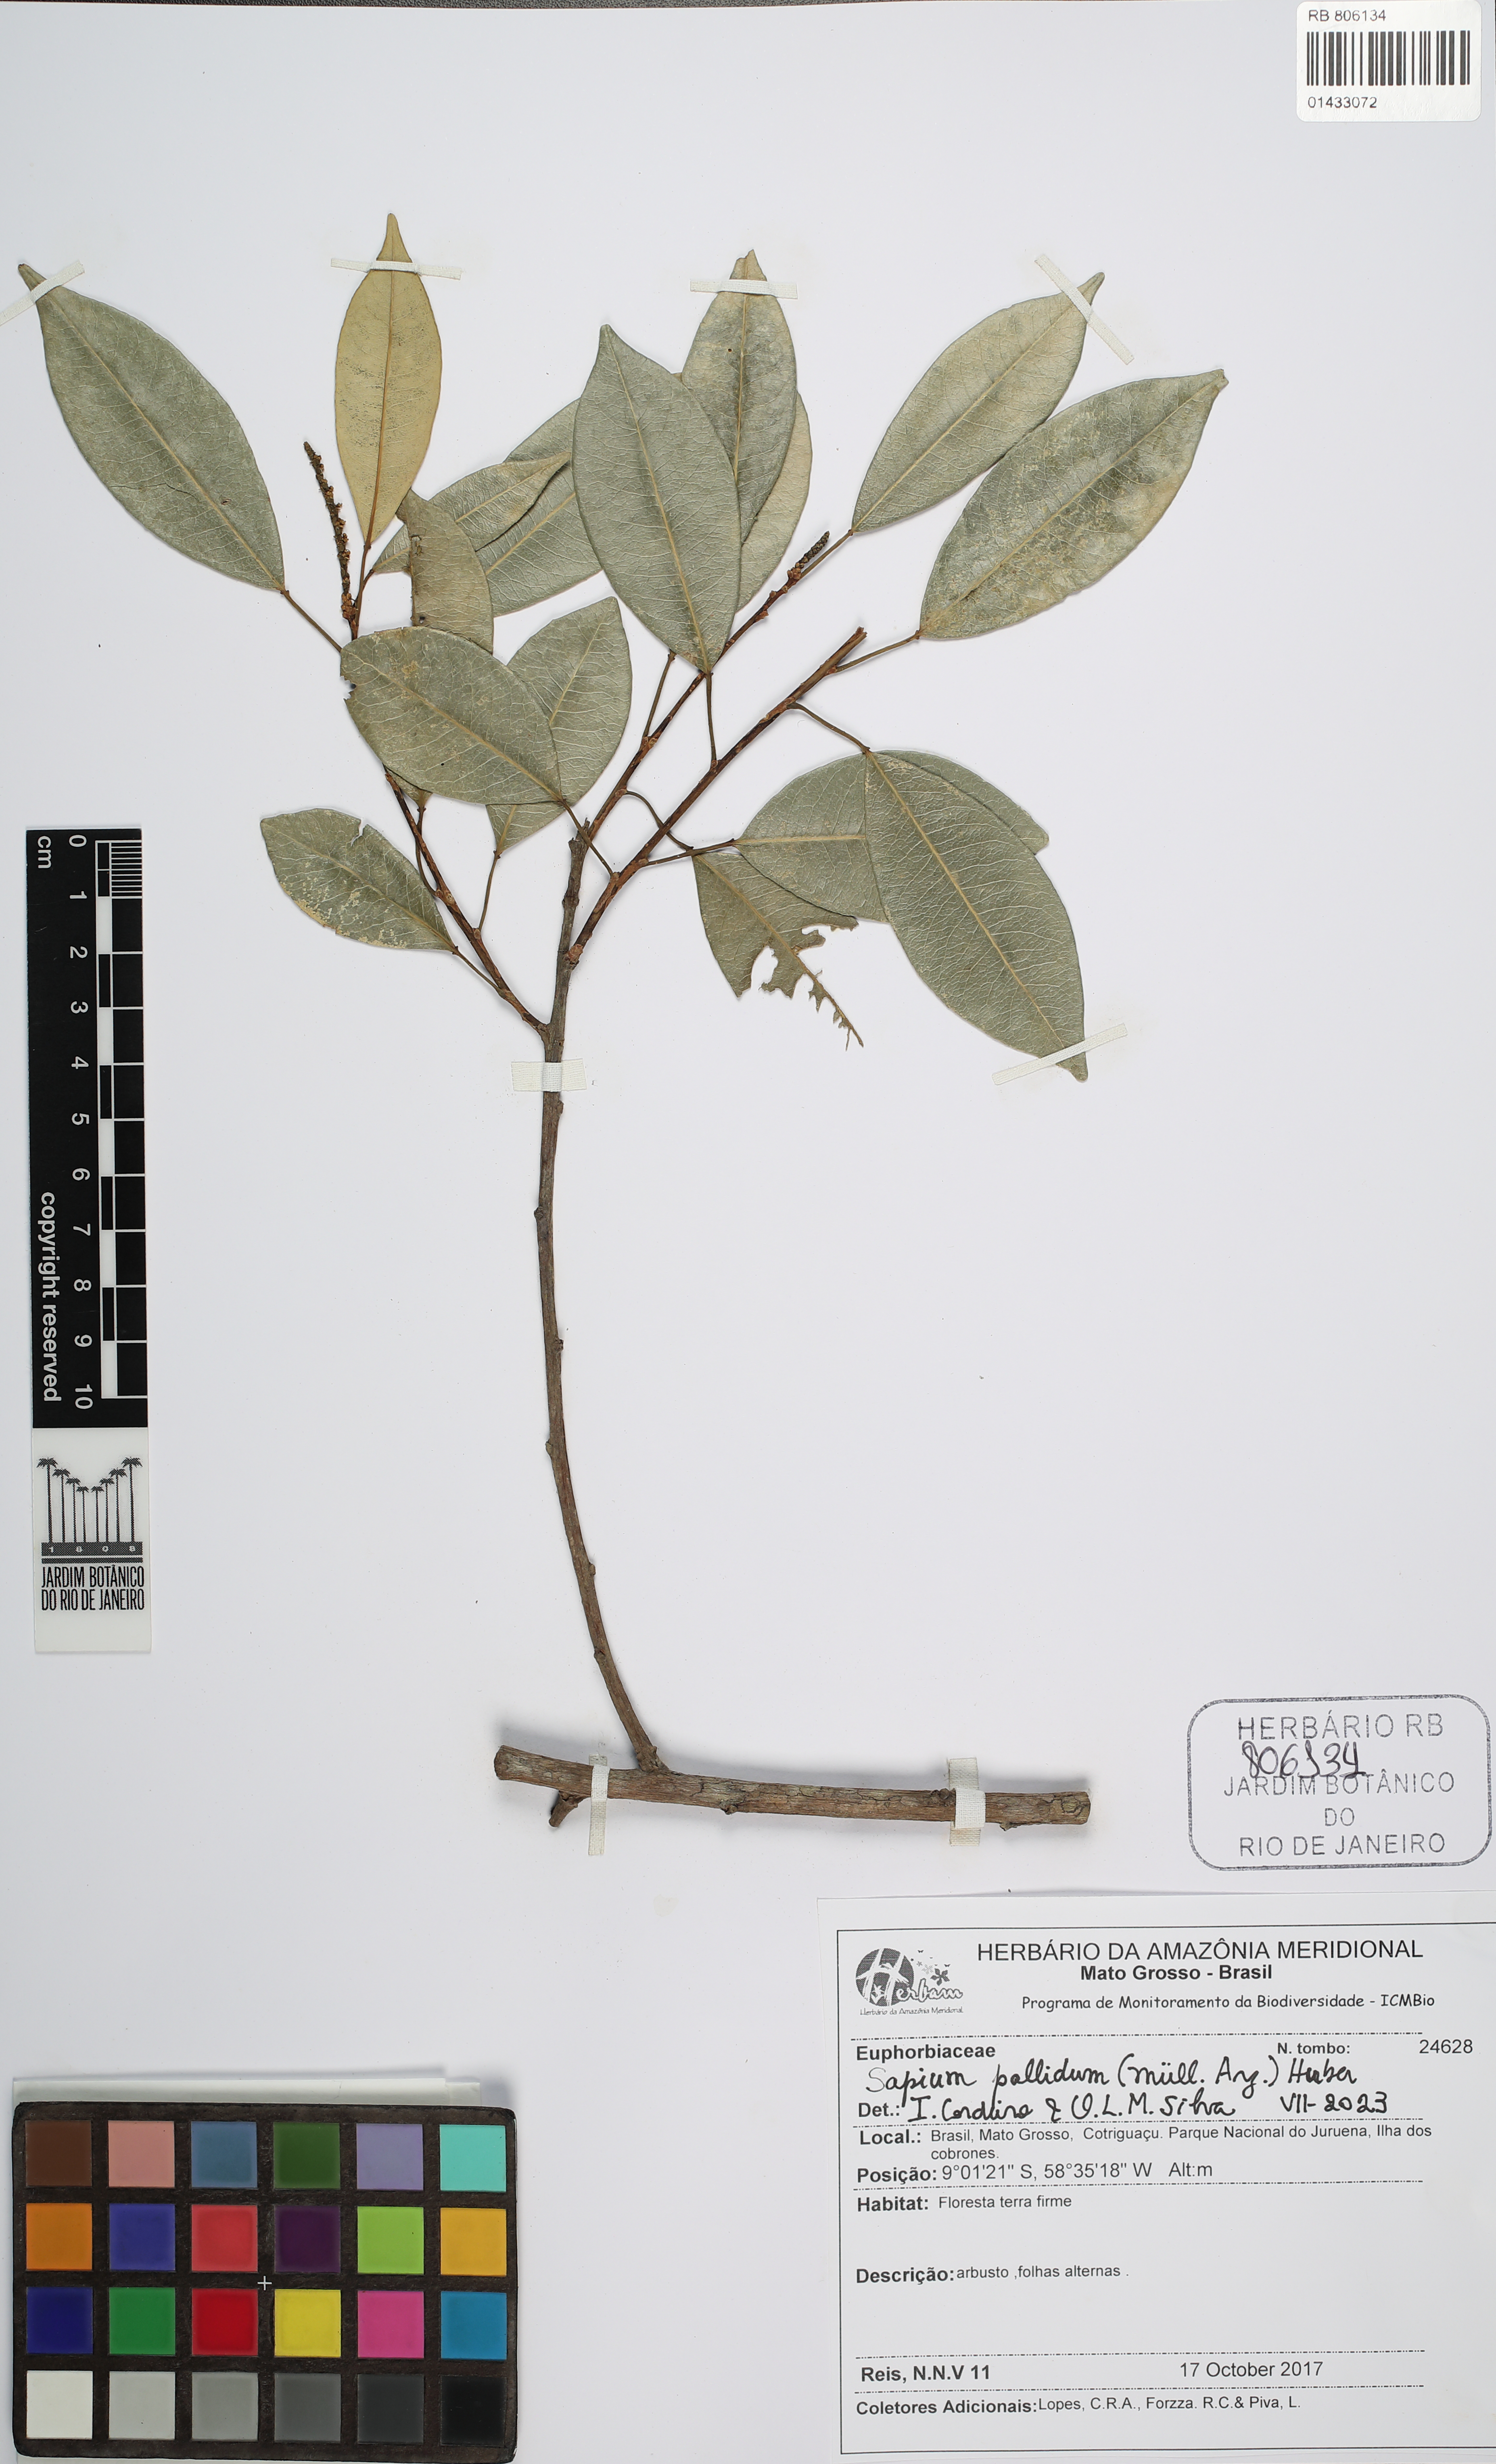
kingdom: Plantae
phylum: Tracheophyta
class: Magnoliopsida
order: Malpighiales
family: Euphorbiaceae
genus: Sapium
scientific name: Sapium pallidum
